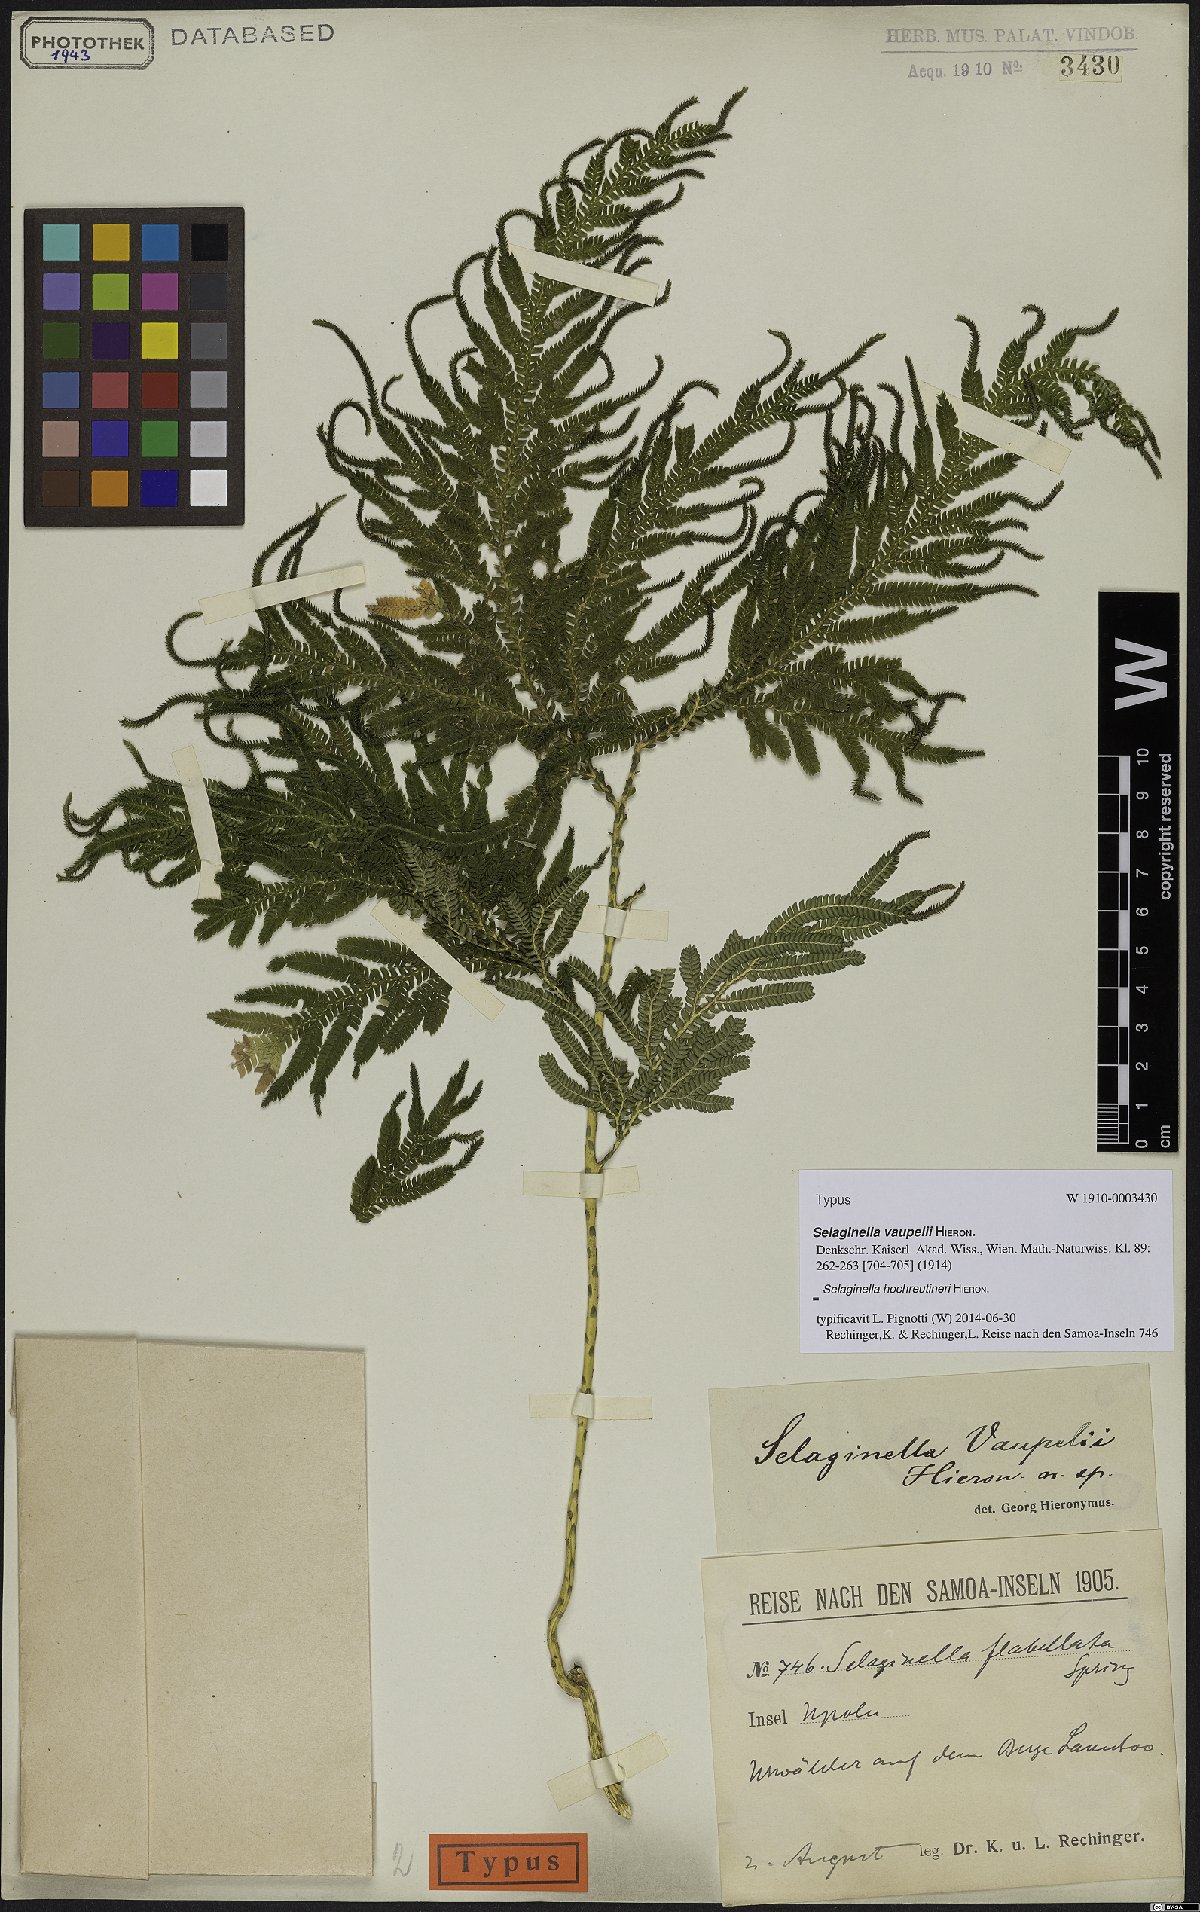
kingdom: Plantae
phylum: Tracheophyta
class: Lycopodiopsida
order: Selaginellales
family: Selaginellaceae
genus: Selaginella
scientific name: Selaginella hochreutineri
